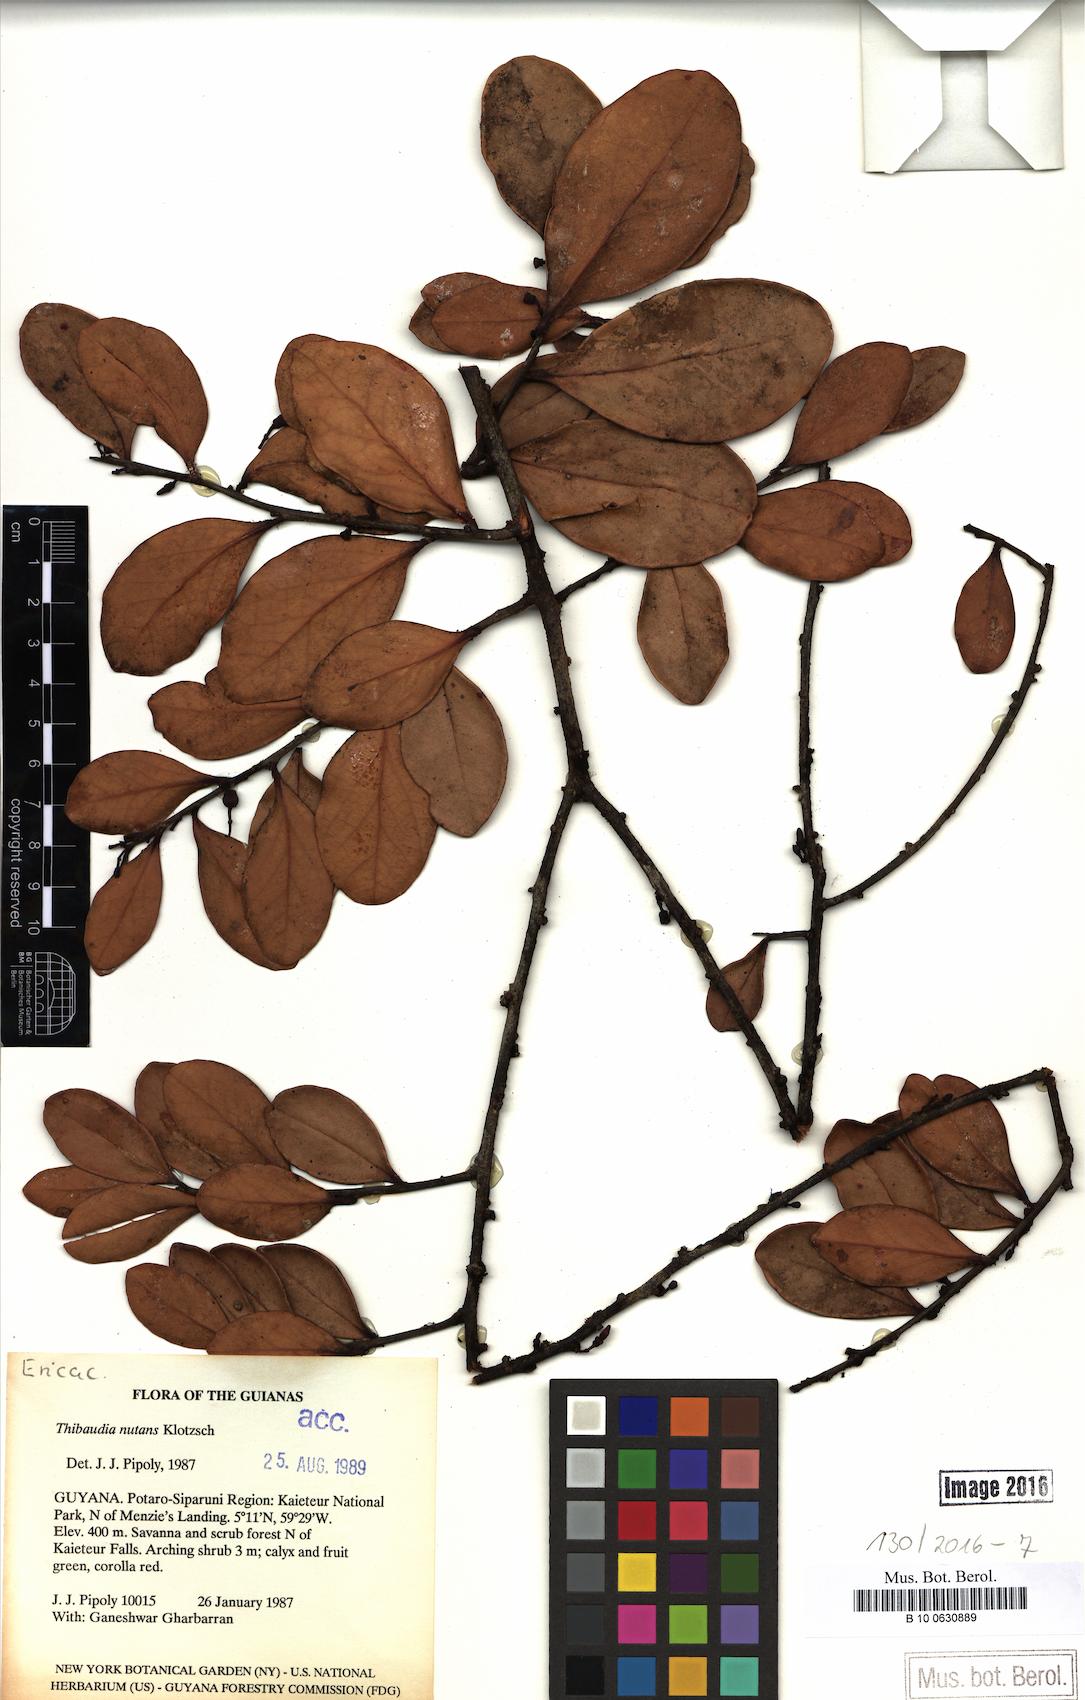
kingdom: Plantae
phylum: Tracheophyta
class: Magnoliopsida
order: Ericales
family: Ericaceae
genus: Psammisia
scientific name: Psammisia coarctata
